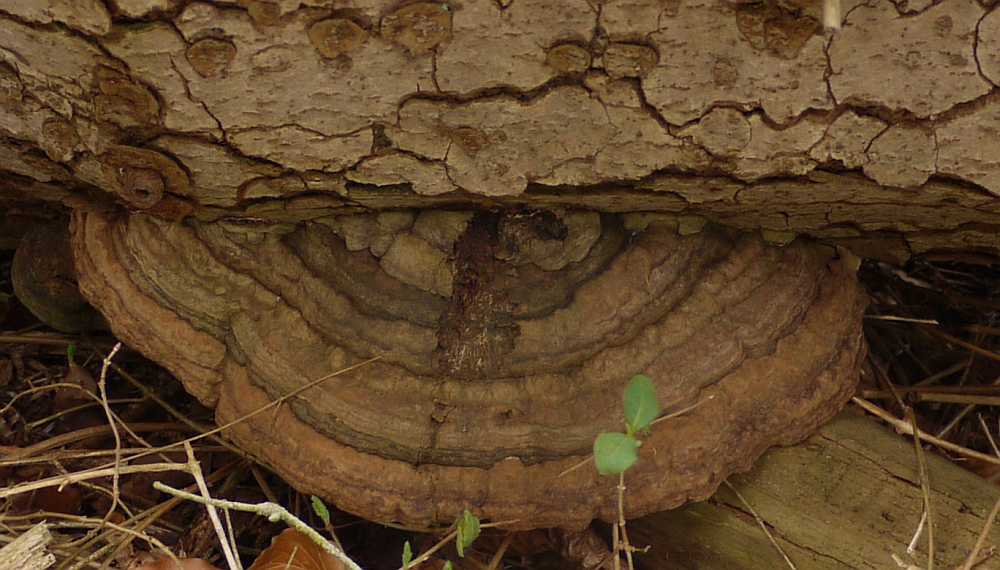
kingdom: Fungi
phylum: Basidiomycota
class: Agaricomycetes
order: Polyporales
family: Polyporaceae
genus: Ganoderma
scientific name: Ganoderma applanatum
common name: flad lakporesvamp
